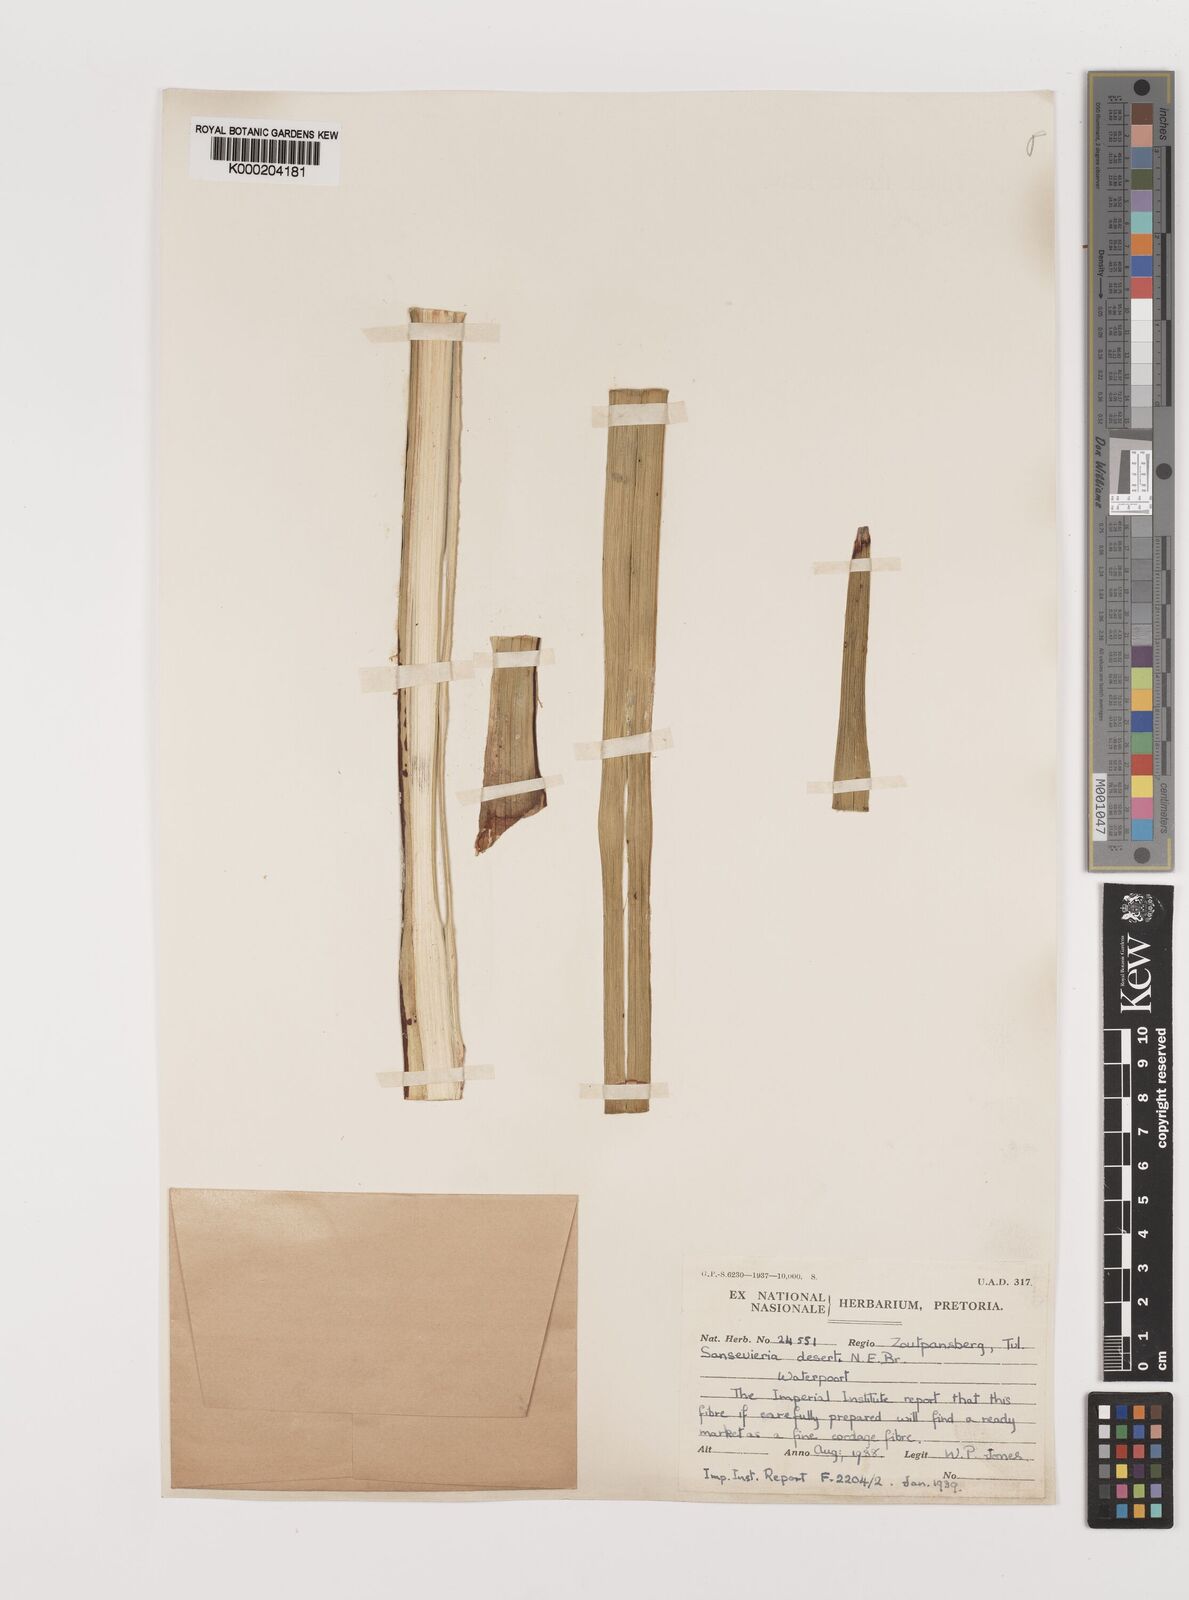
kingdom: Plantae
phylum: Tracheophyta
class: Liliopsida
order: Asparagales
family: Asparagaceae
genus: Dracaena
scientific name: Dracaena pearsonii
